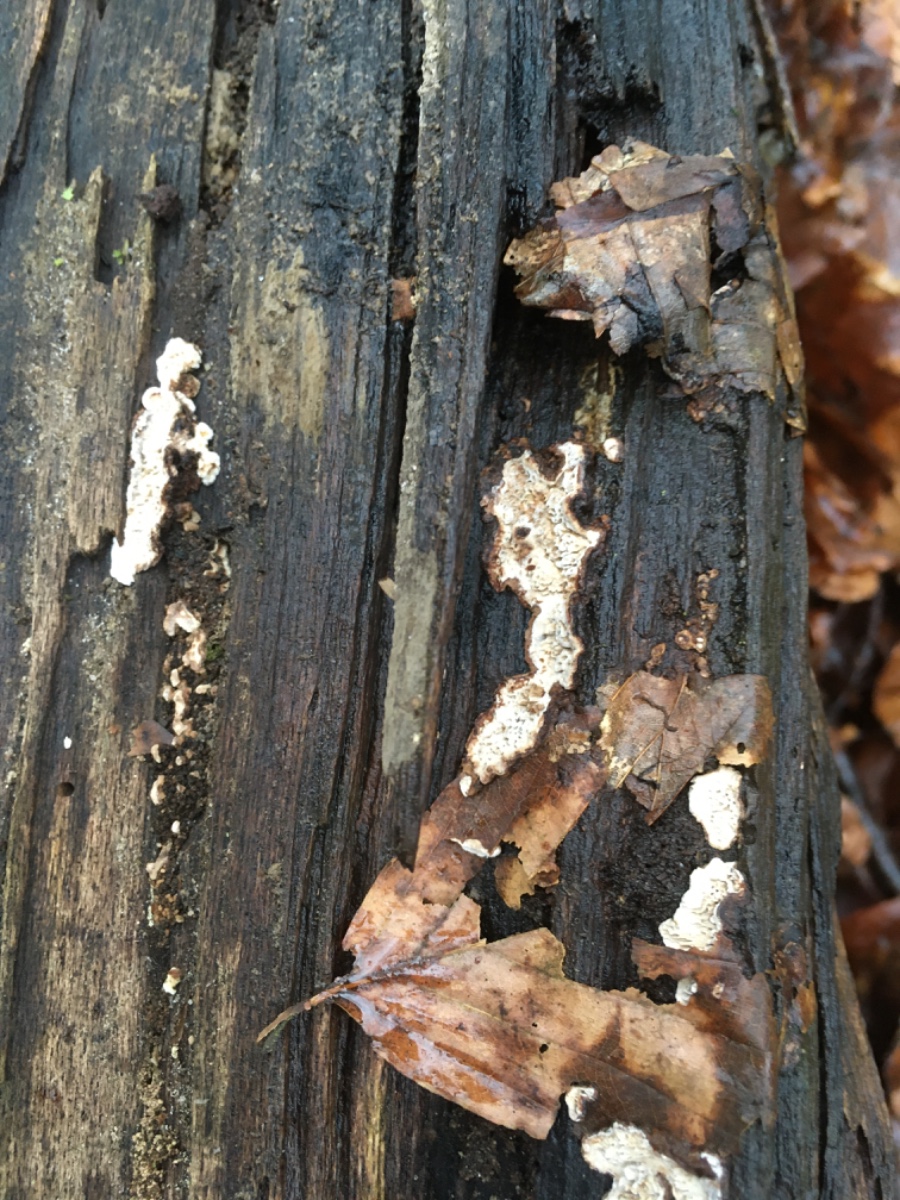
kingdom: Fungi
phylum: Basidiomycota
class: Agaricomycetes
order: Polyporales
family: Polyporaceae
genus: Podofomes
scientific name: Podofomes mollis
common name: blød begporesvamp
